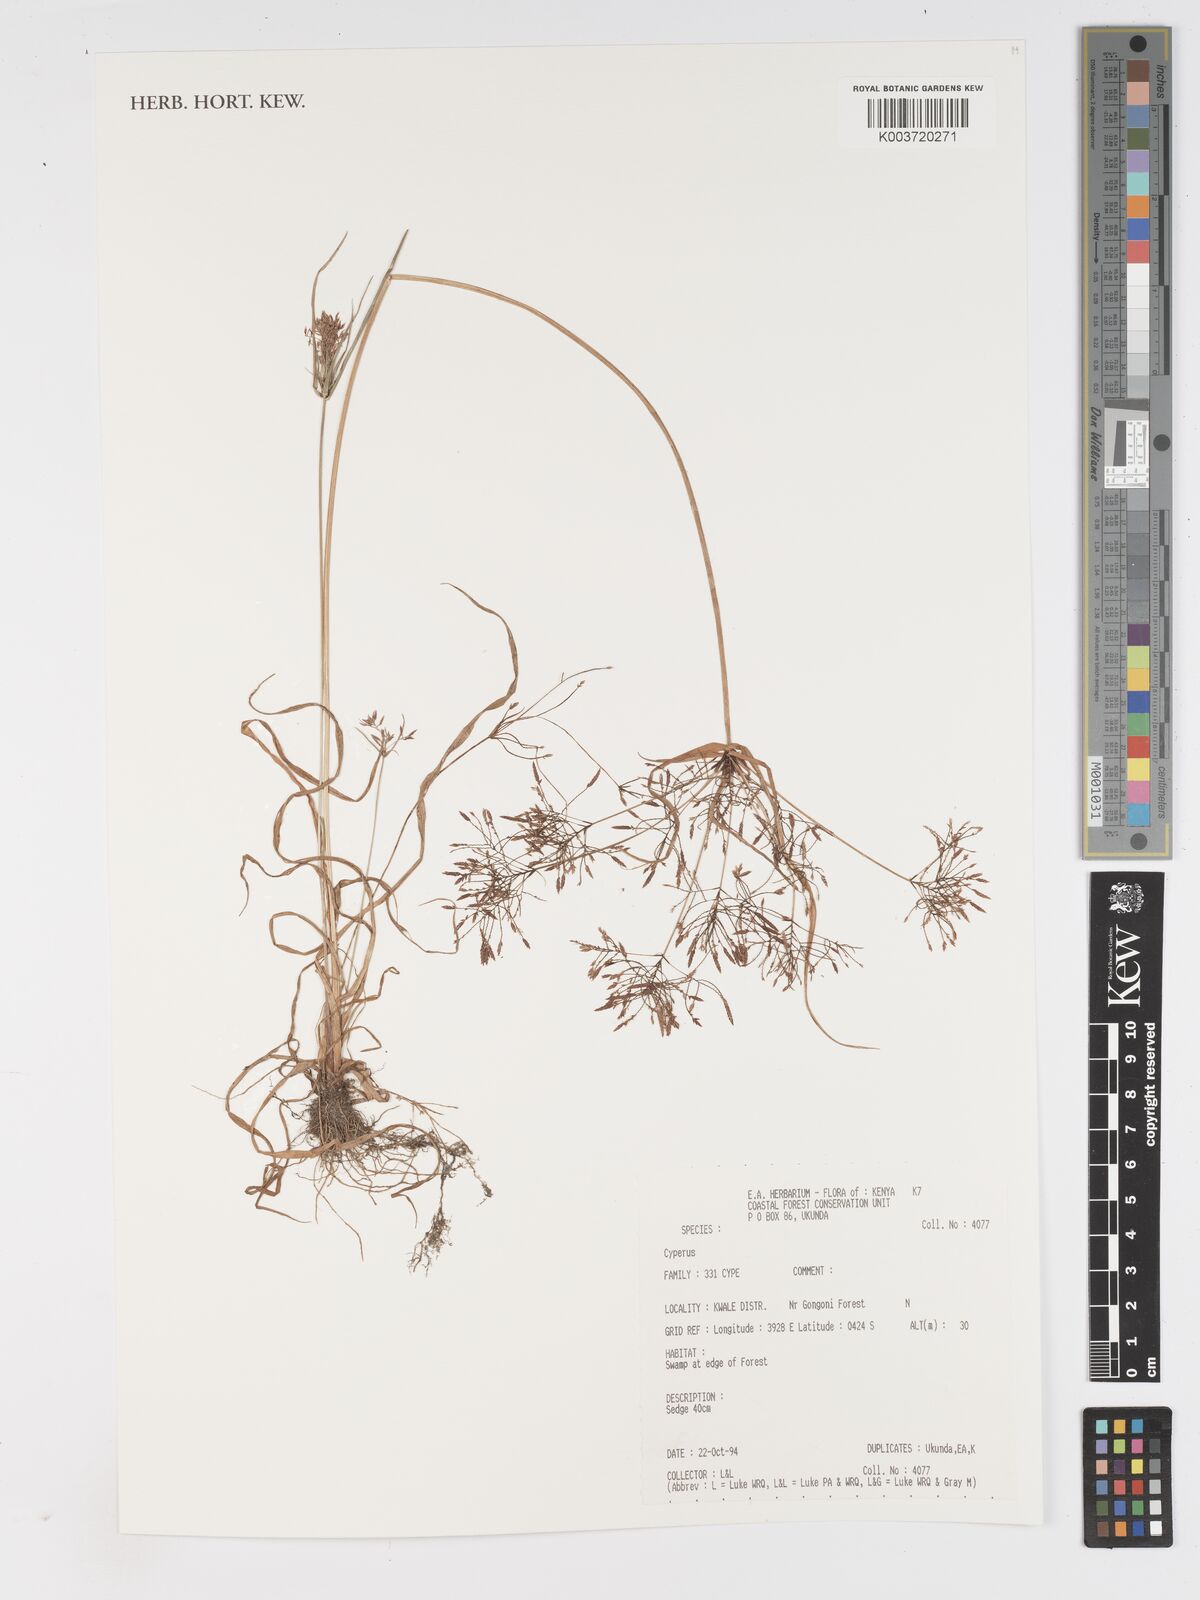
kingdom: Plantae
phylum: Tracheophyta
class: Liliopsida
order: Poales
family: Cyperaceae
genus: Cyperus
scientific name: Cyperus
